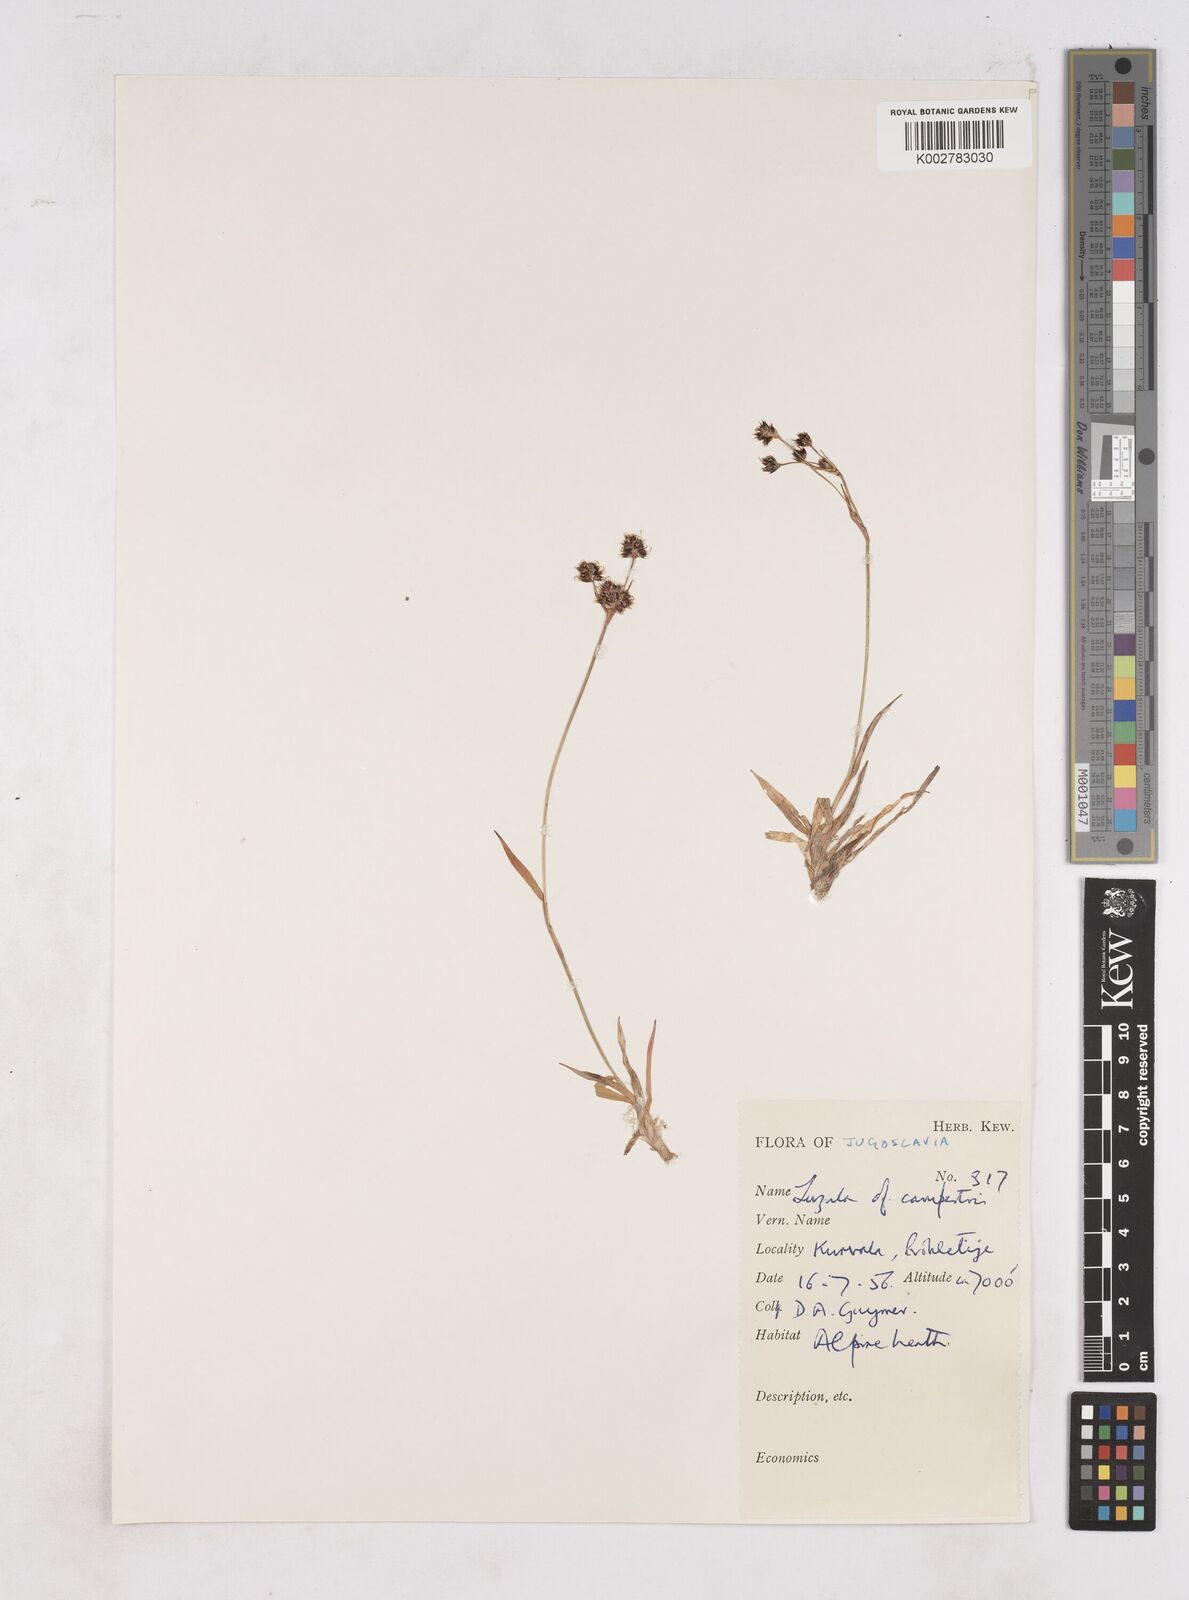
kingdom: Plantae
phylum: Tracheophyta
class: Liliopsida
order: Poales
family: Juncaceae
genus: Luzula
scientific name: Luzula campestris
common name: Field wood-rush
